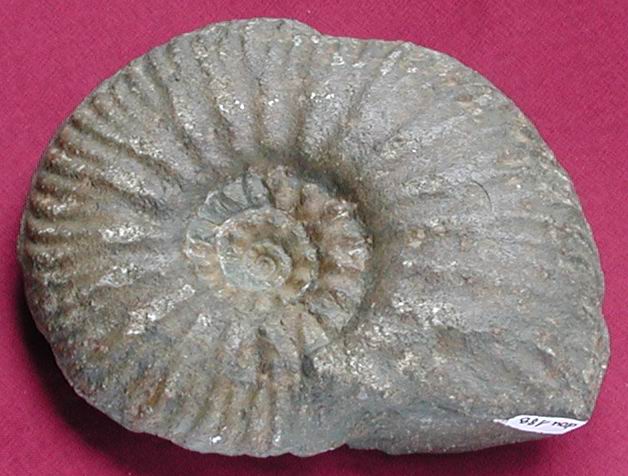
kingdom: Animalia
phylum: Mollusca
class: Cephalopoda
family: Hammatoceratidae
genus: Hammatoceras
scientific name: Hammatoceras
